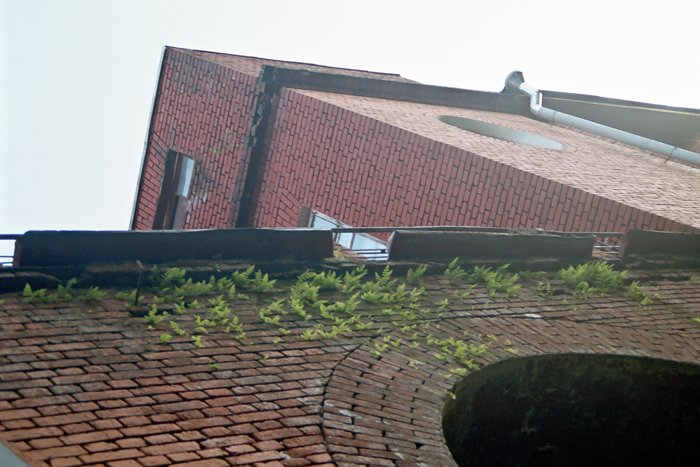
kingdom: Plantae
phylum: Tracheophyta
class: Polypodiopsida
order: Polypodiales
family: Polypodiaceae
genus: Polypodium
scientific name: Polypodium vulgare
